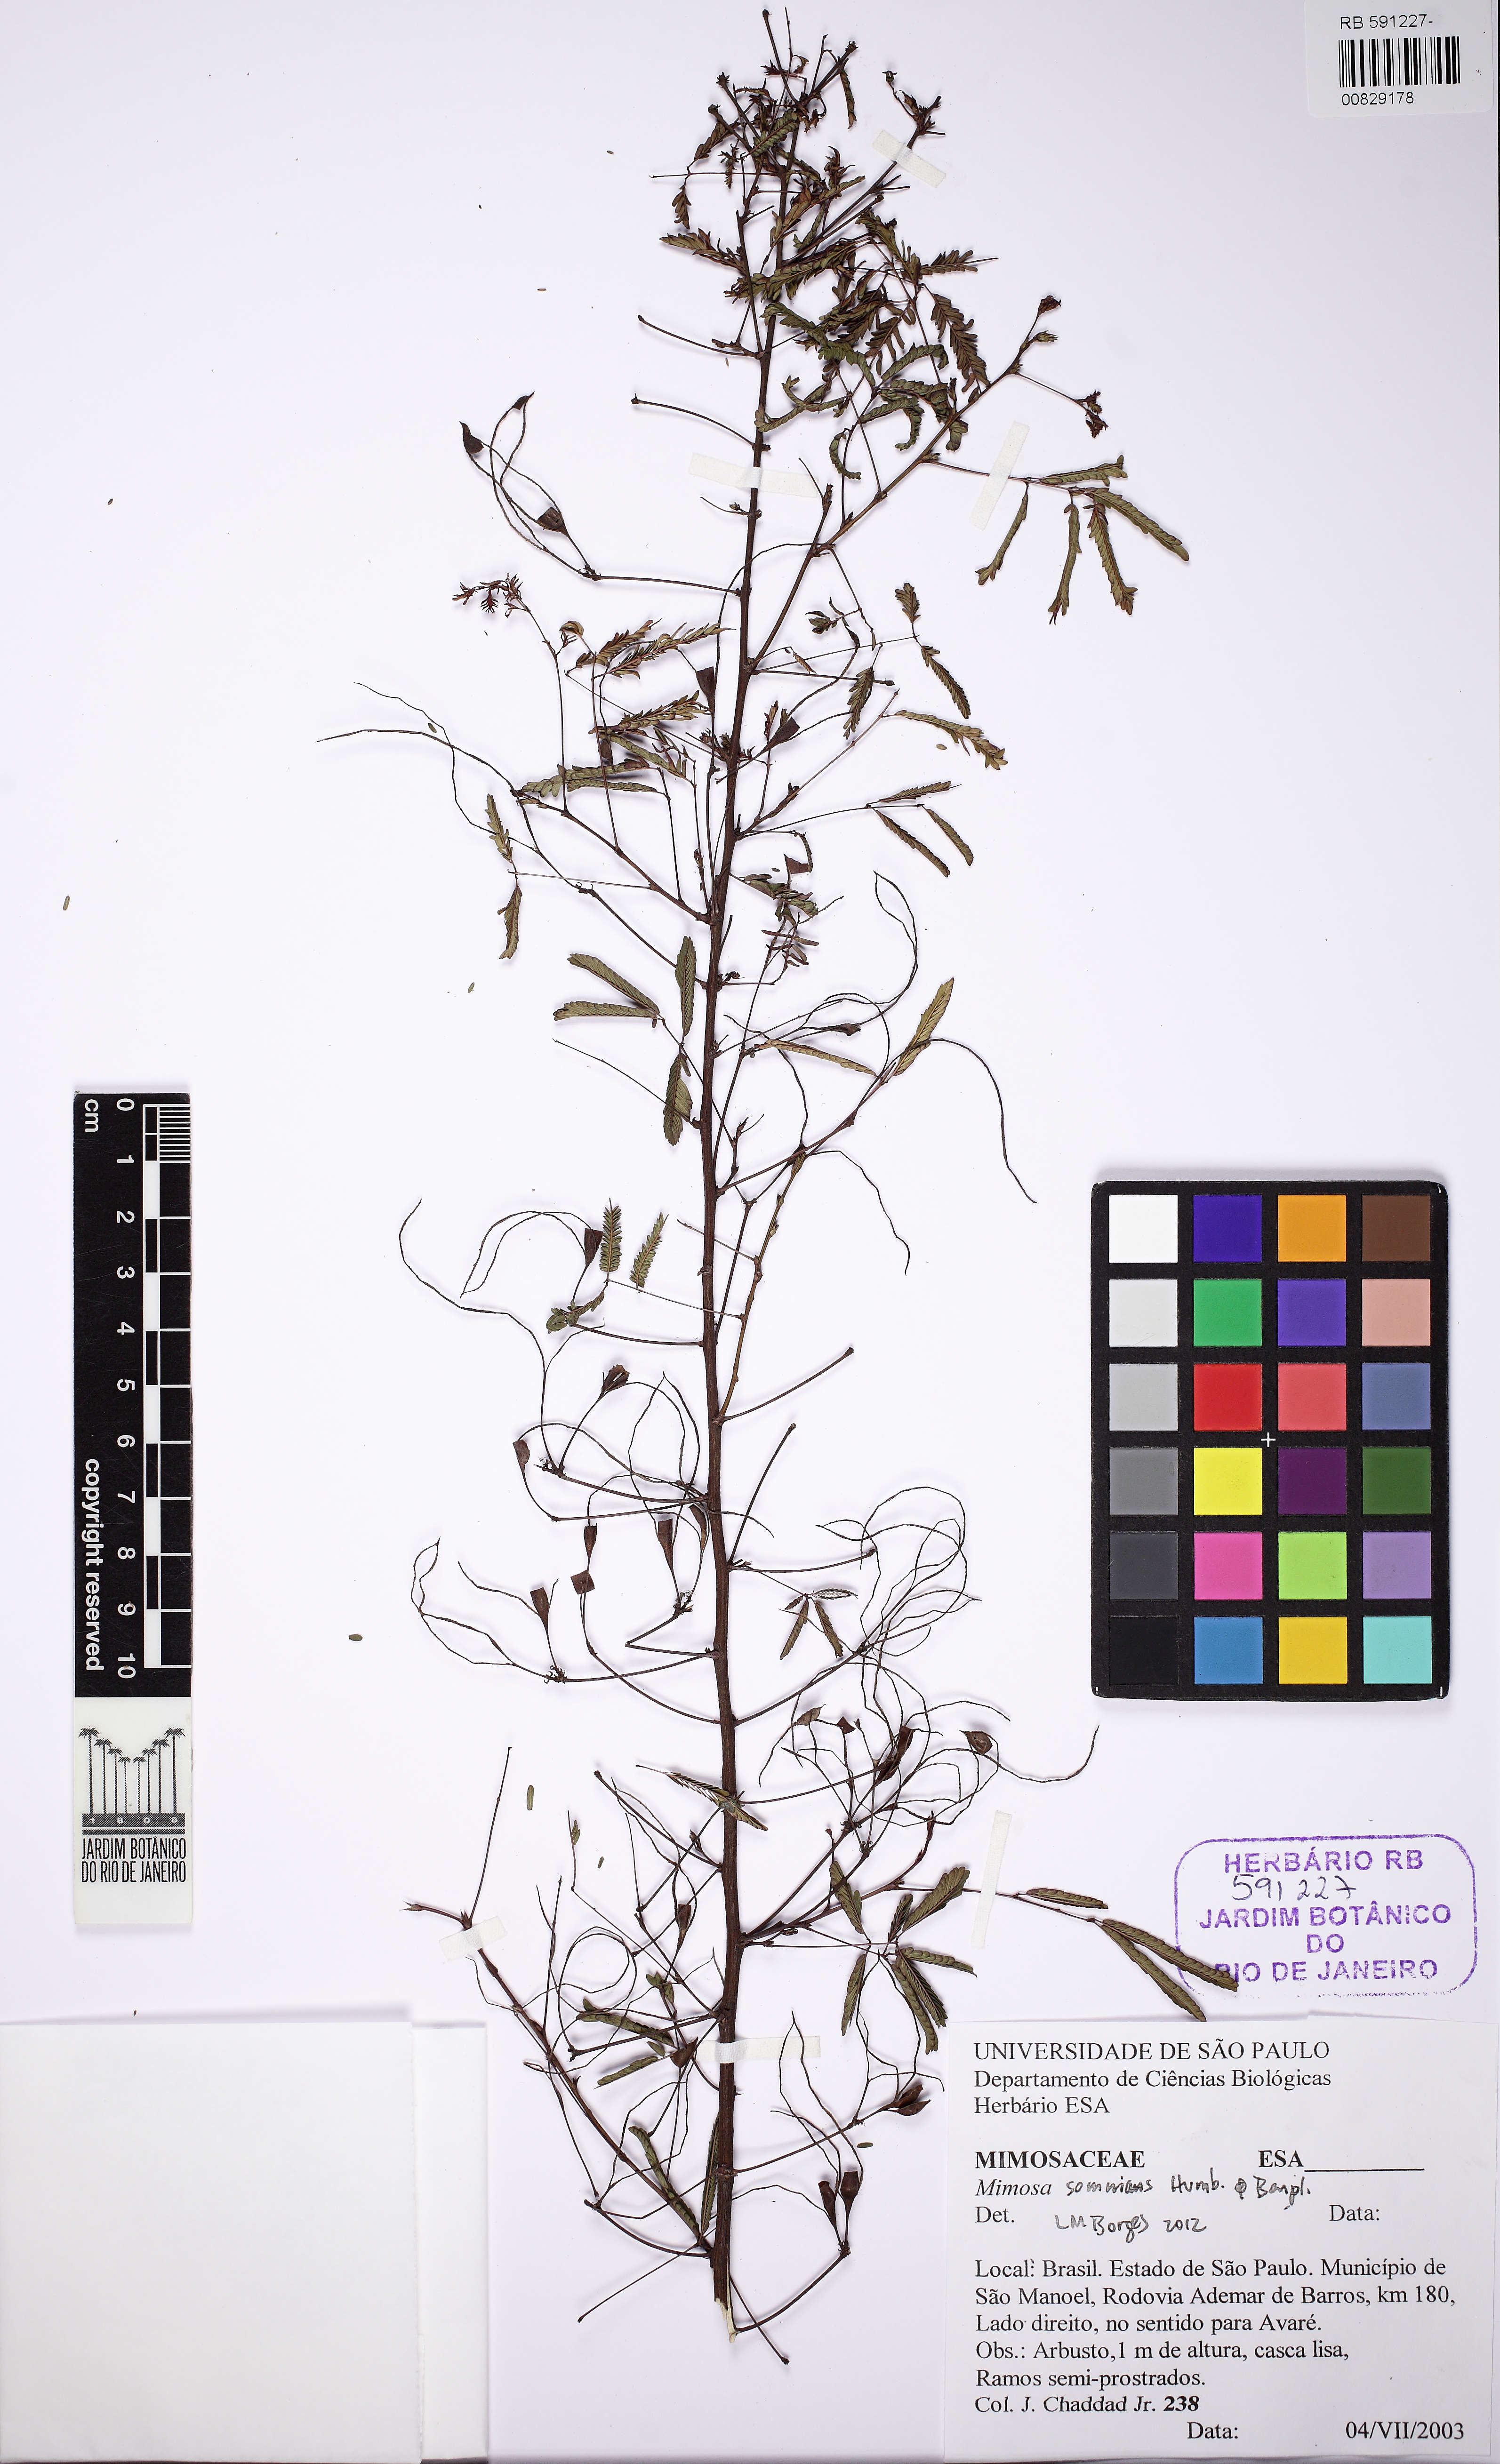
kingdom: Plantae
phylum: Tracheophyta
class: Magnoliopsida
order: Fabales
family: Fabaceae
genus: Mimosa
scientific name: Mimosa somnians
